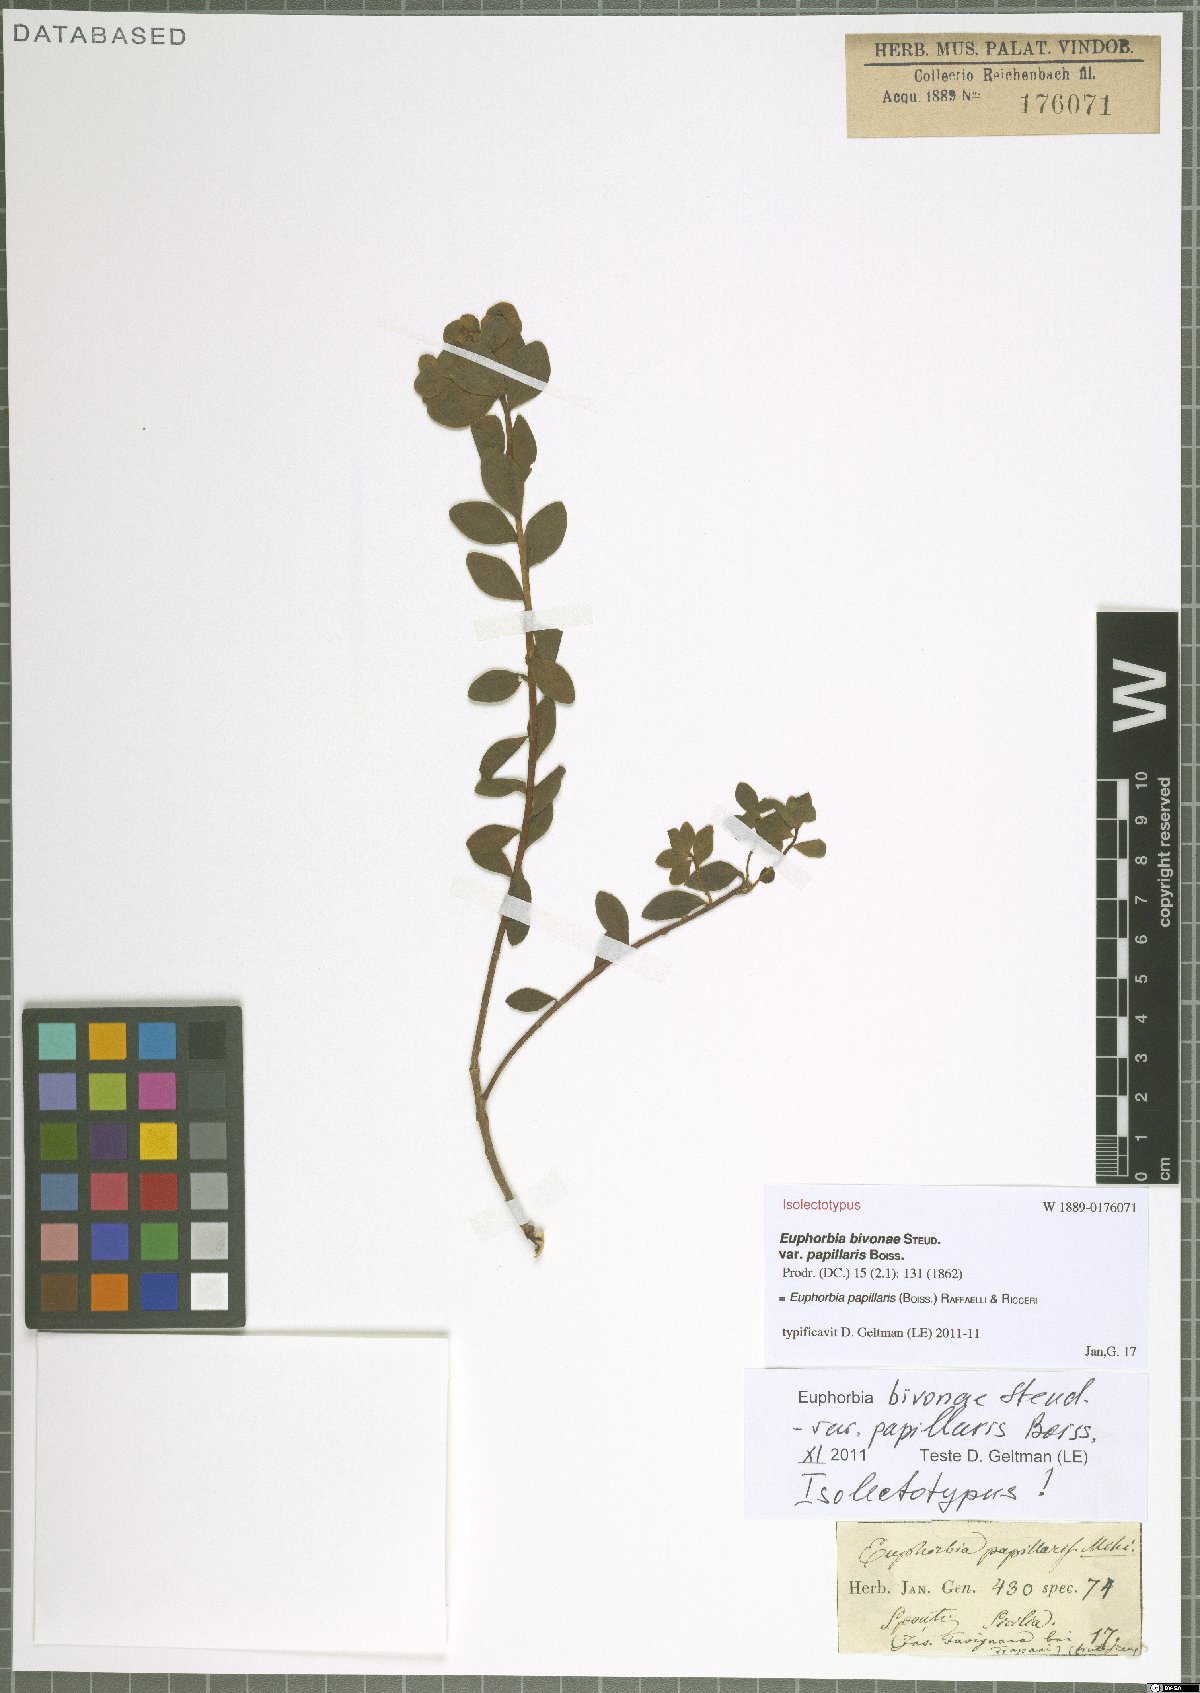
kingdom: Plantae
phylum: Tracheophyta
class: Magnoliopsida
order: Malpighiales
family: Euphorbiaceae
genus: Euphorbia
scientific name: Euphorbia papillaris
